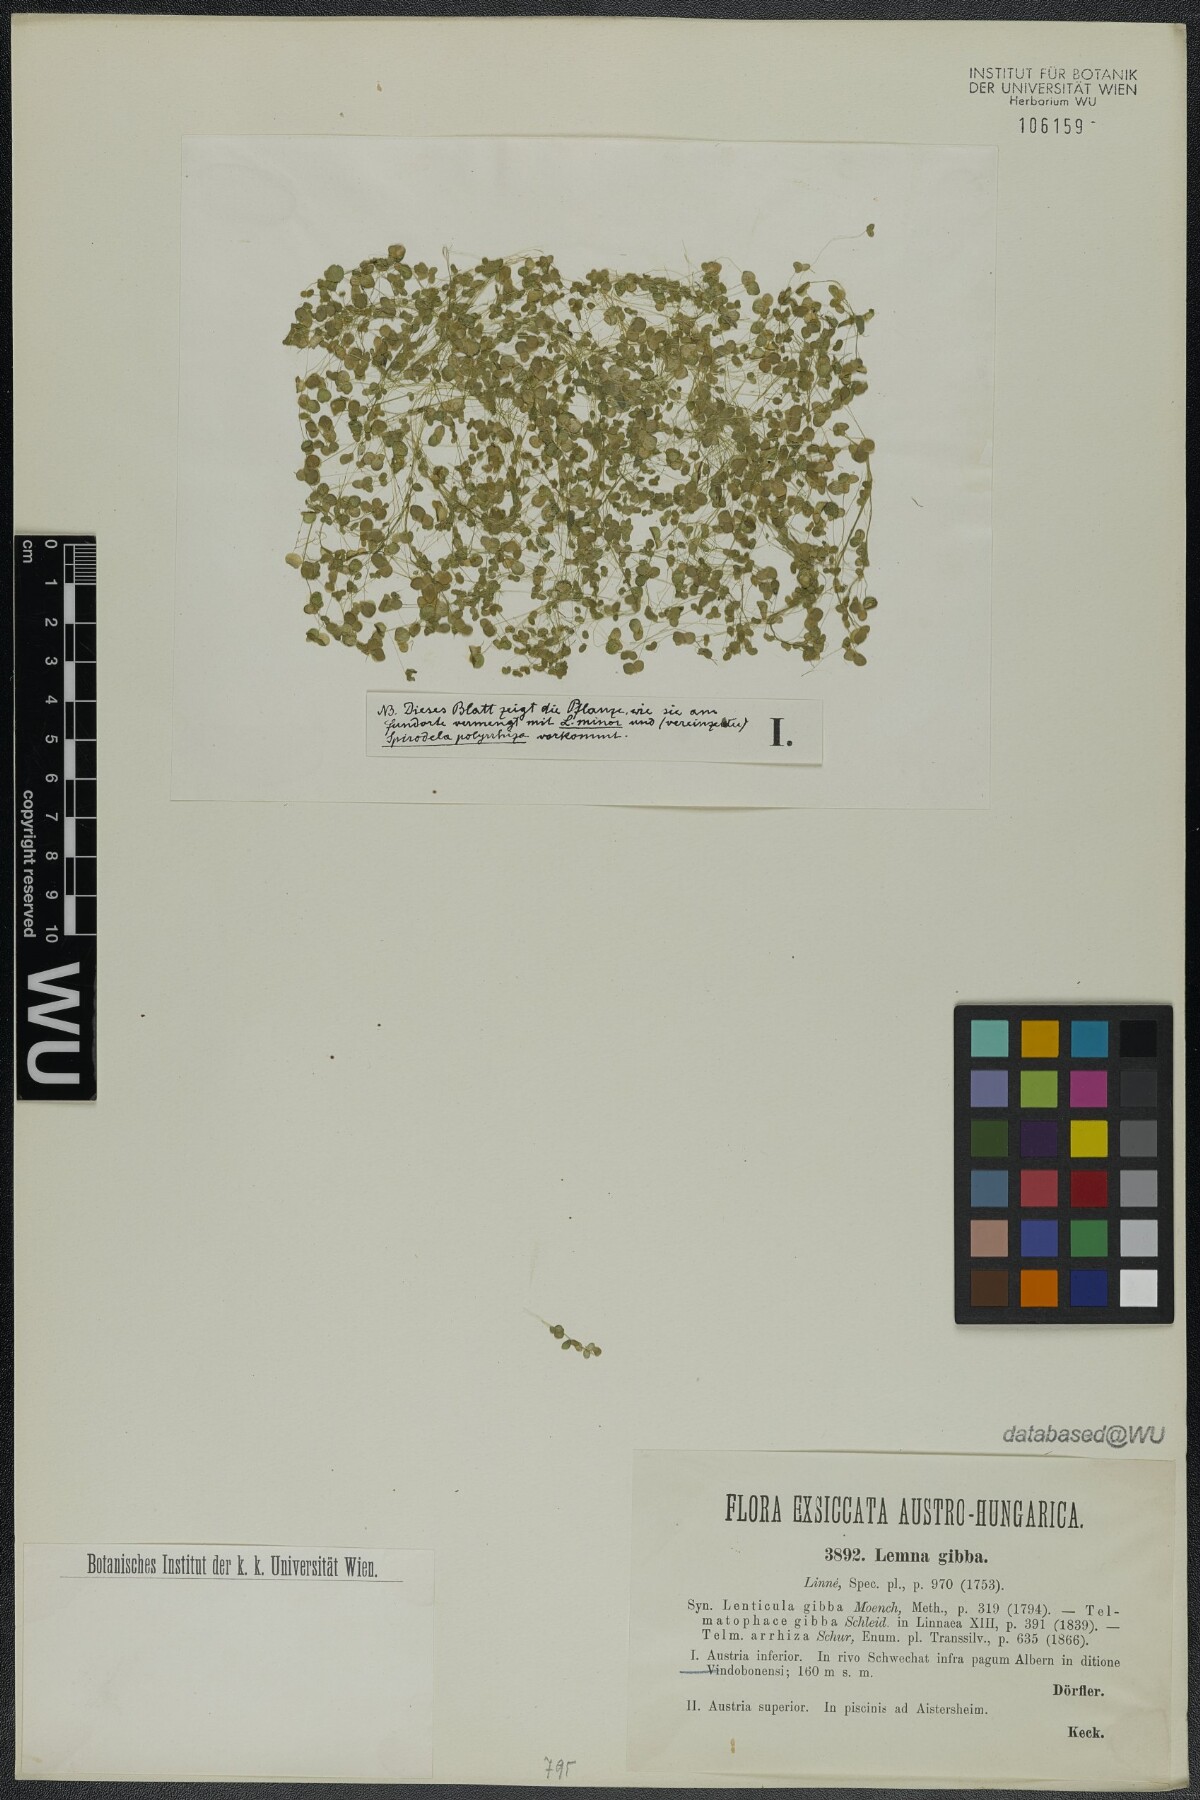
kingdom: Plantae
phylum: Tracheophyta
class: Liliopsida
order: Alismatales
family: Araceae
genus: Lemna
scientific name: Lemna gibba
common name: Fat duckweed
